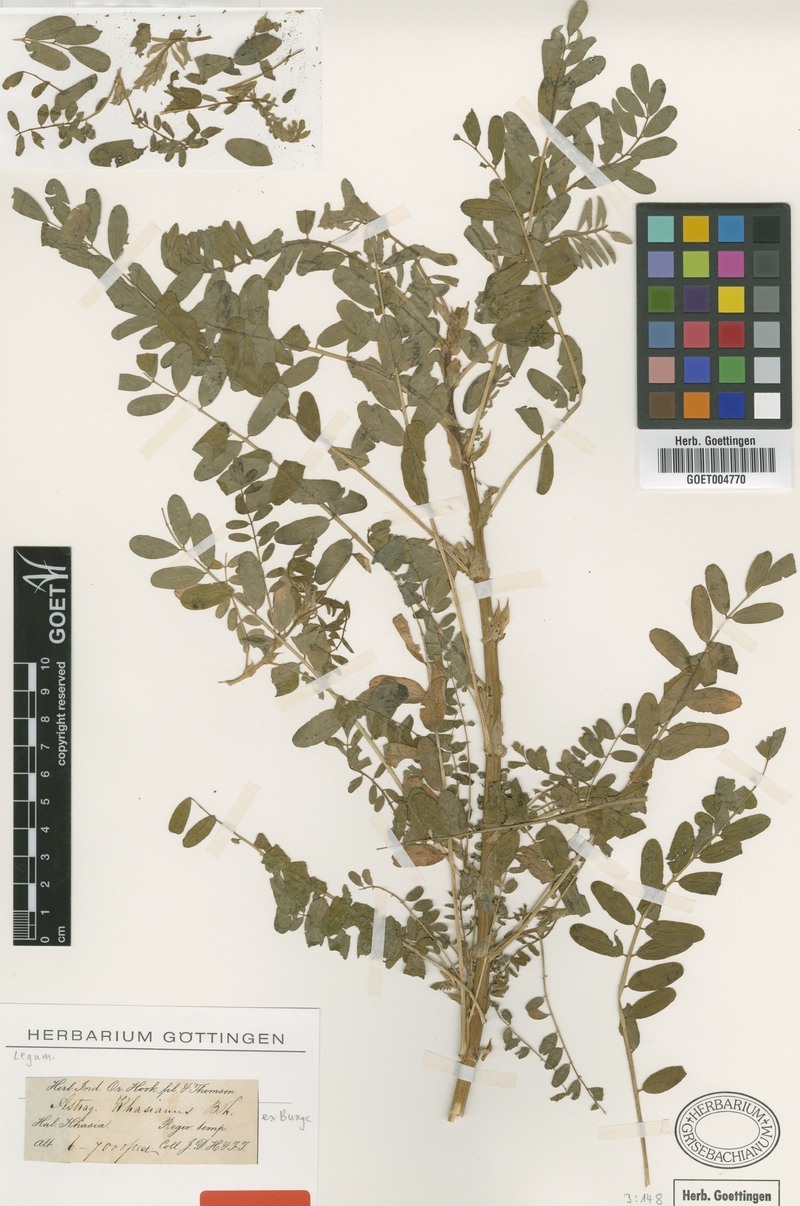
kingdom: Plantae
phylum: Tracheophyta
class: Magnoliopsida
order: Fabales
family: Fabaceae
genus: Astragalus
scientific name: Astragalus khasianus
